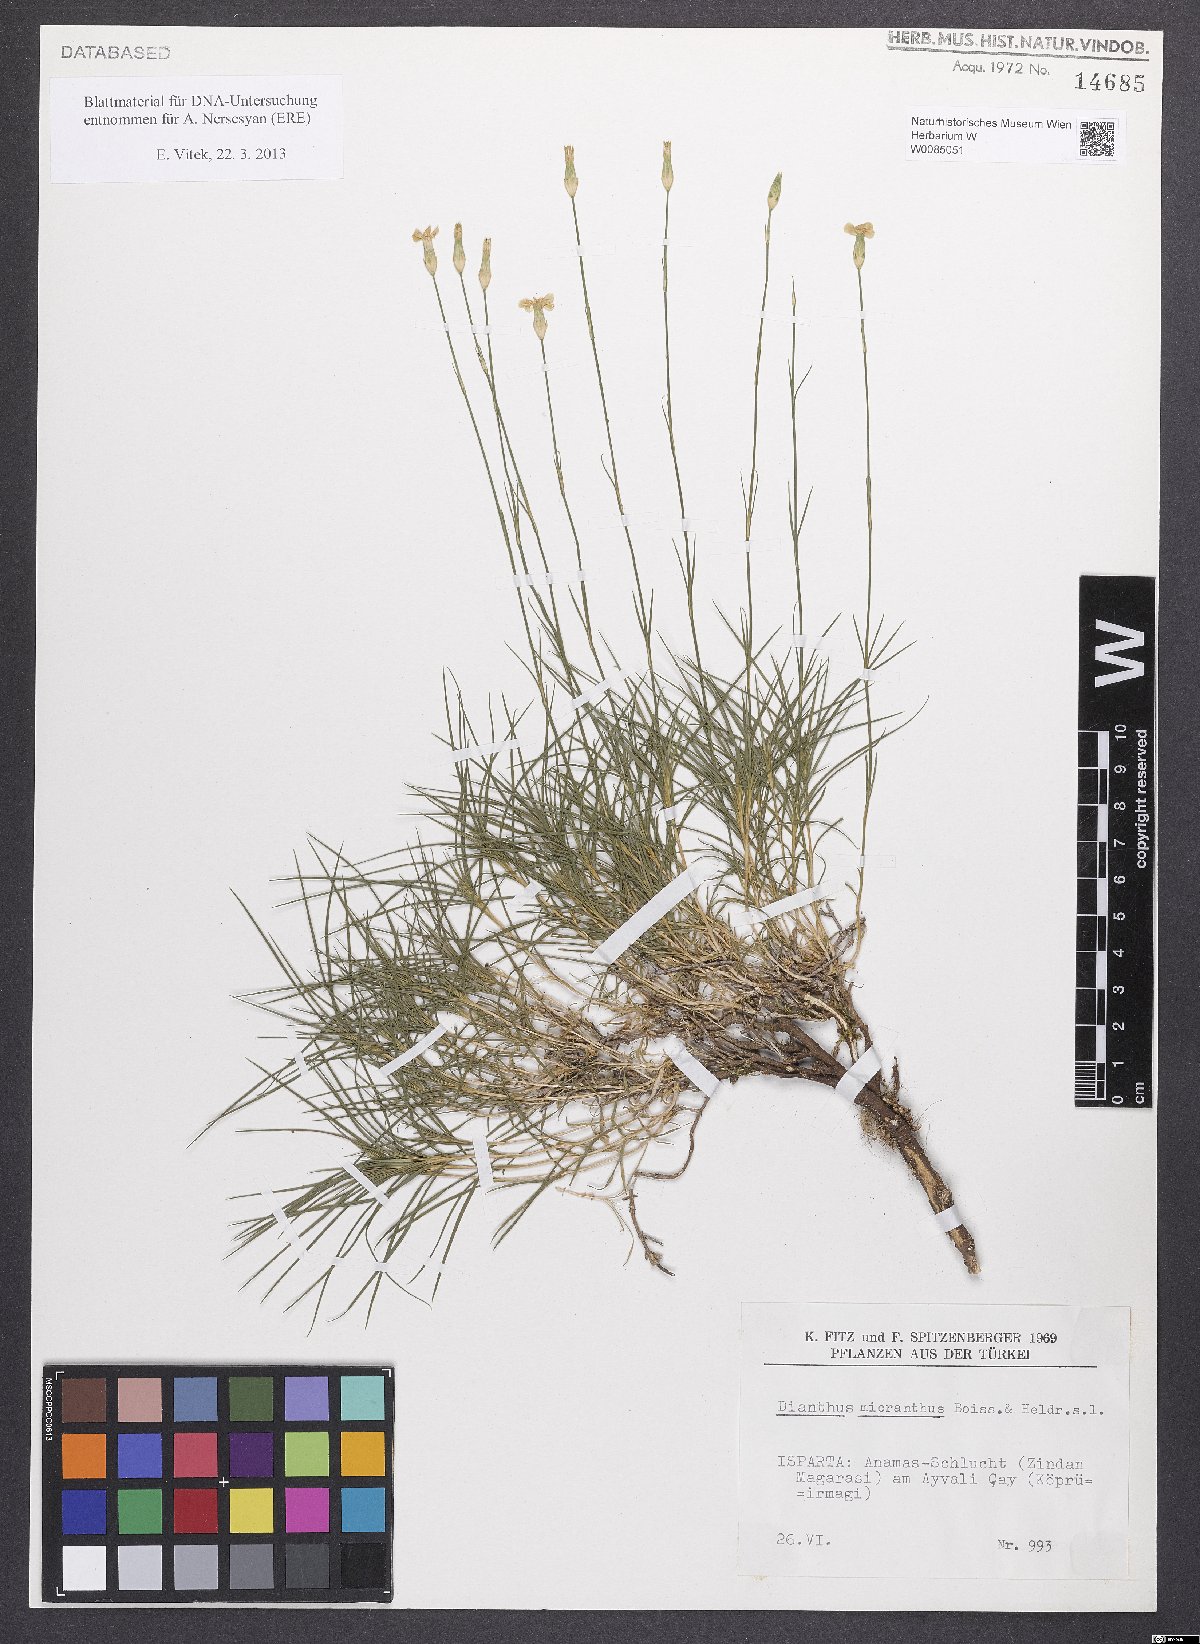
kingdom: Plantae
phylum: Tracheophyta
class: Magnoliopsida
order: Caryophyllales
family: Caryophyllaceae
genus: Dianthus
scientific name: Dianthus micranthus
